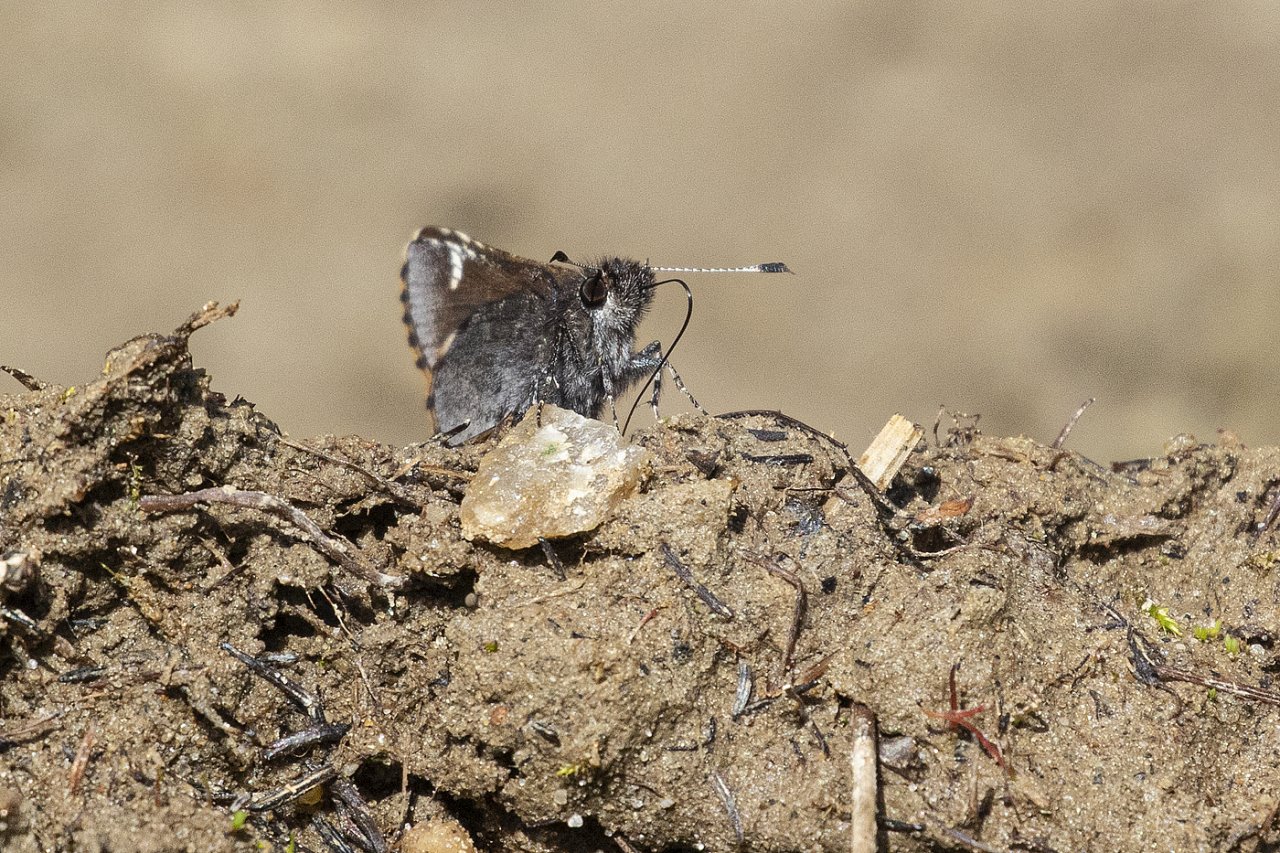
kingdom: Animalia
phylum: Arthropoda
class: Insecta
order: Lepidoptera
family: Hesperiidae
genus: Mastor
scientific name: Mastor vialis
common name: Common Roadside-Skipper
